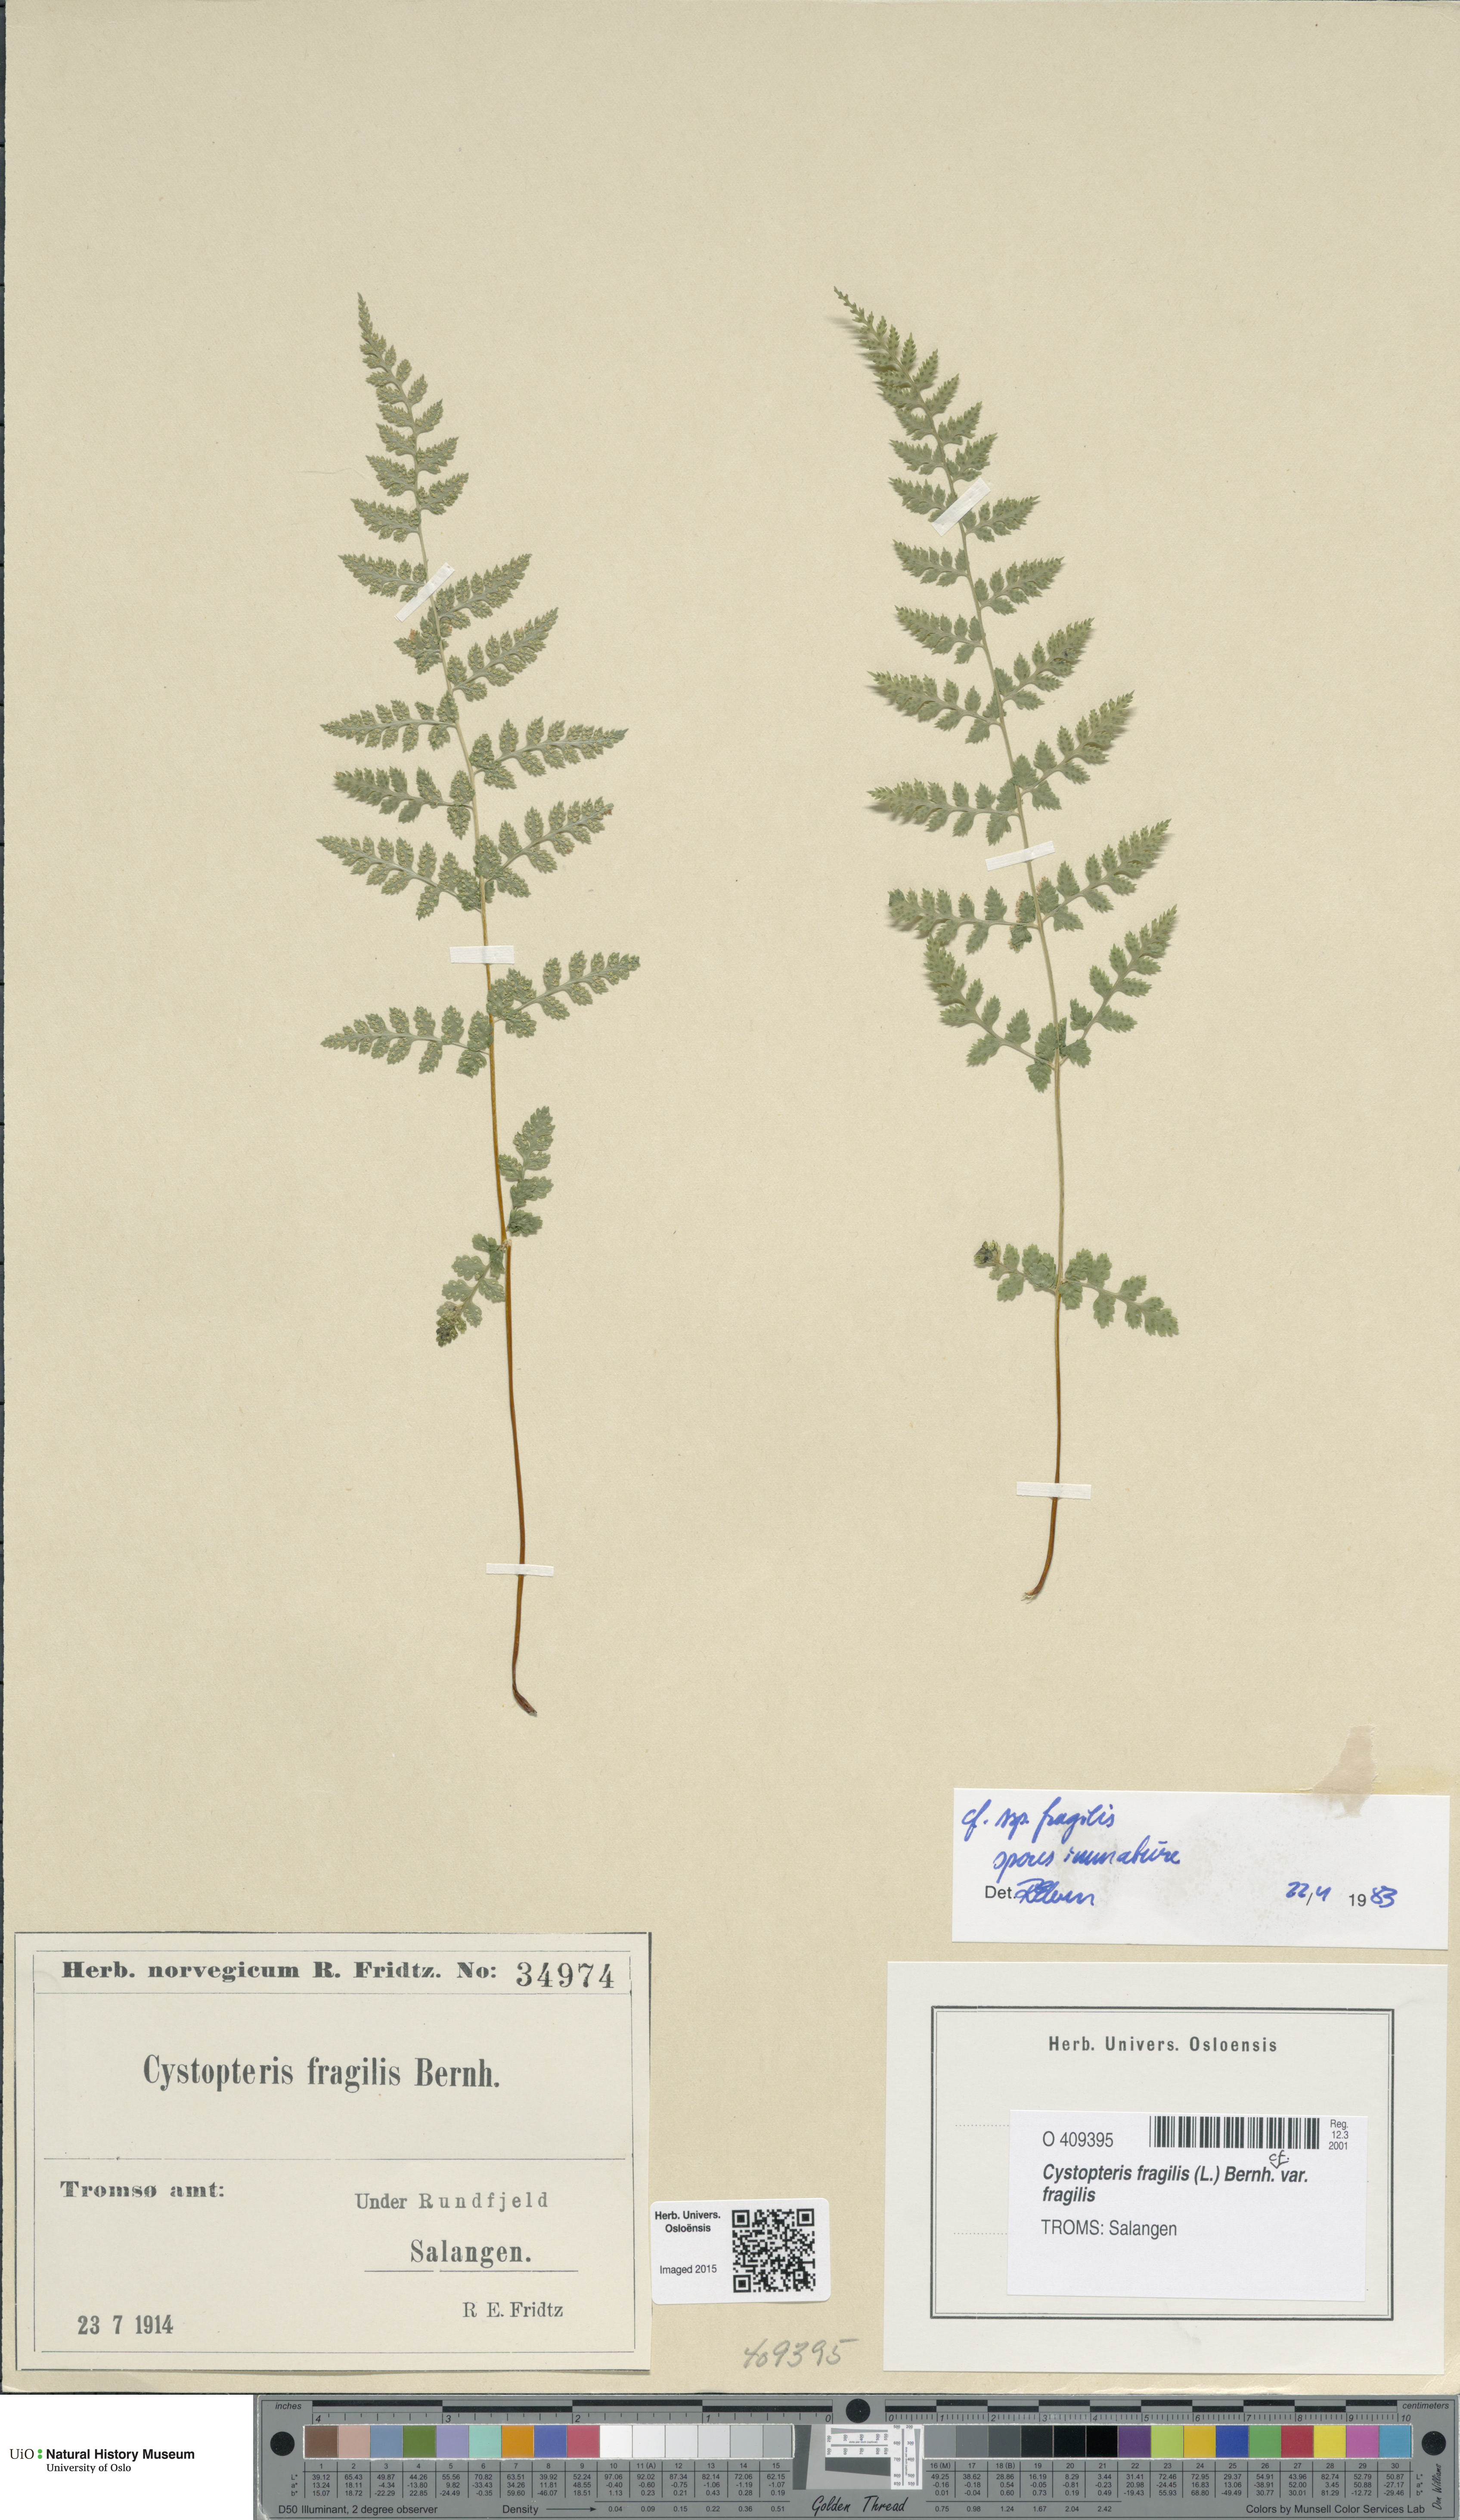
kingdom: Plantae
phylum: Tracheophyta
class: Polypodiopsida
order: Polypodiales
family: Cystopteridaceae
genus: Cystopteris
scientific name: Cystopteris fragilis
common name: Brittle bladder fern
